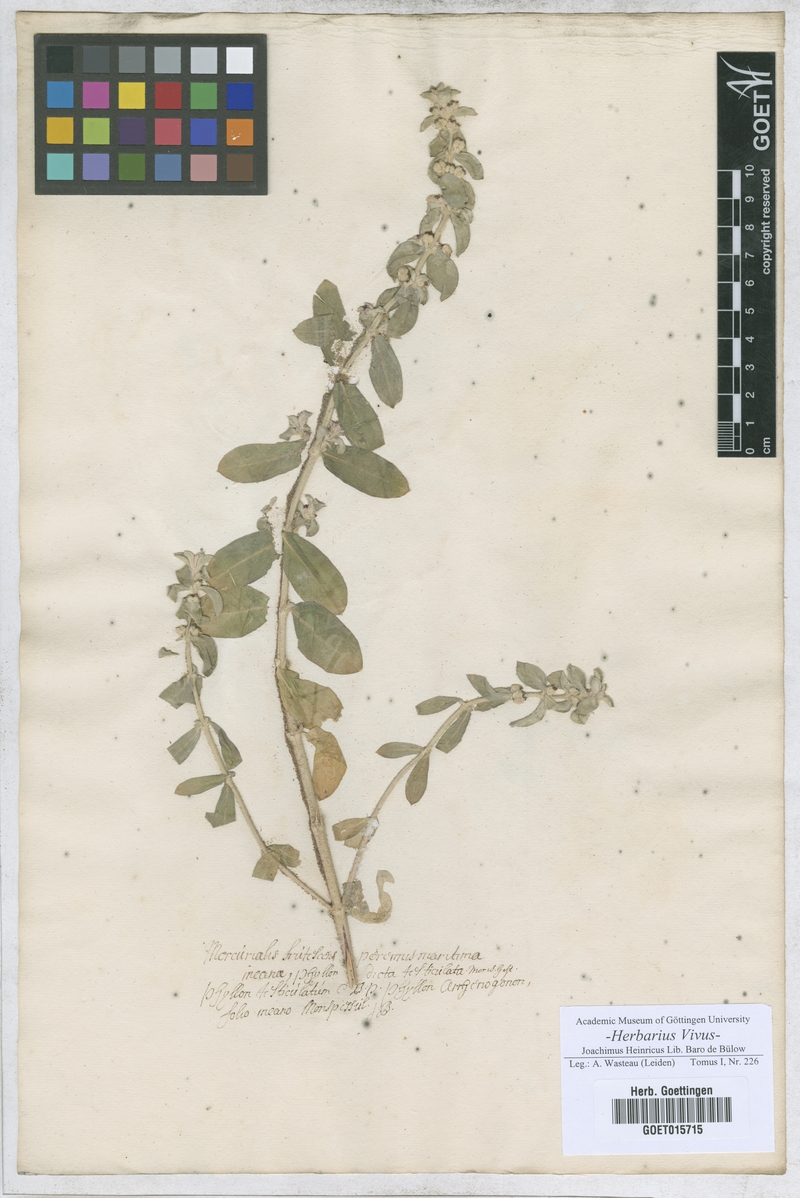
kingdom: Plantae
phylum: Tracheophyta
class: Magnoliopsida
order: Malpighiales
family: Euphorbiaceae
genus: Mercurialis
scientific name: Mercurialis tomentosa
